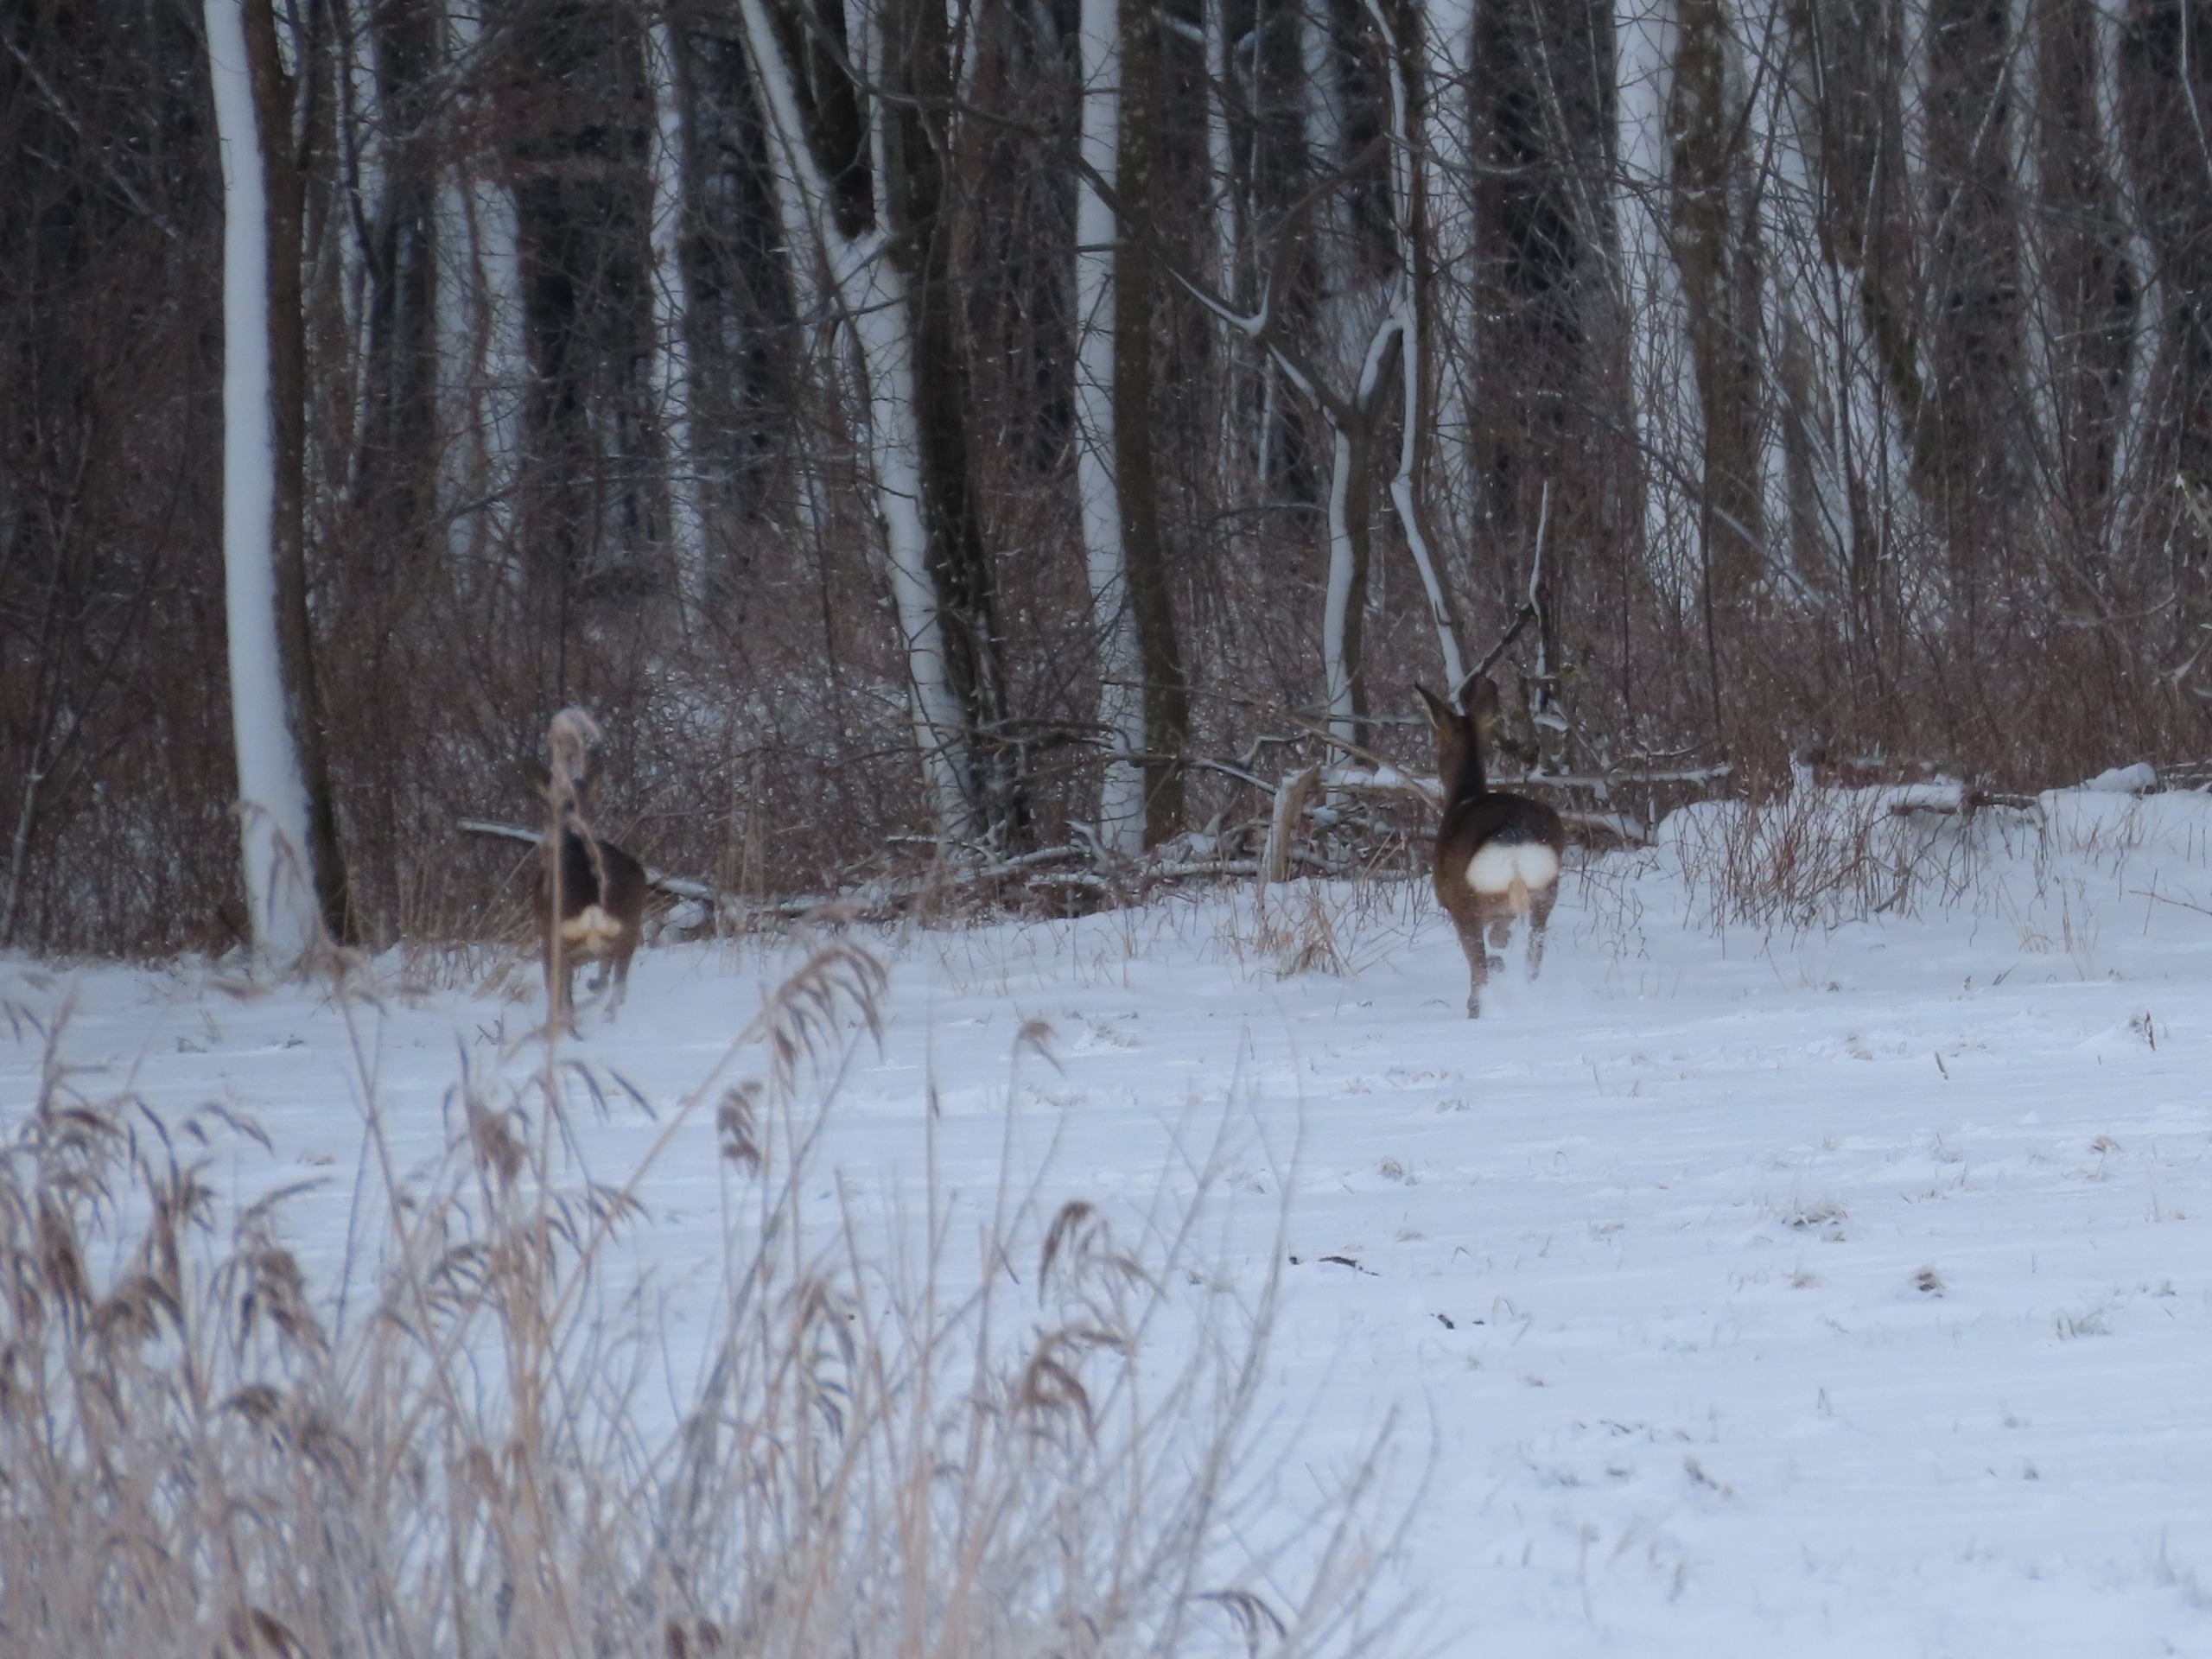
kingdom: Animalia
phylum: Chordata
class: Mammalia
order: Artiodactyla
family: Cervidae
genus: Capreolus
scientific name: Capreolus capreolus
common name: Rådyr
